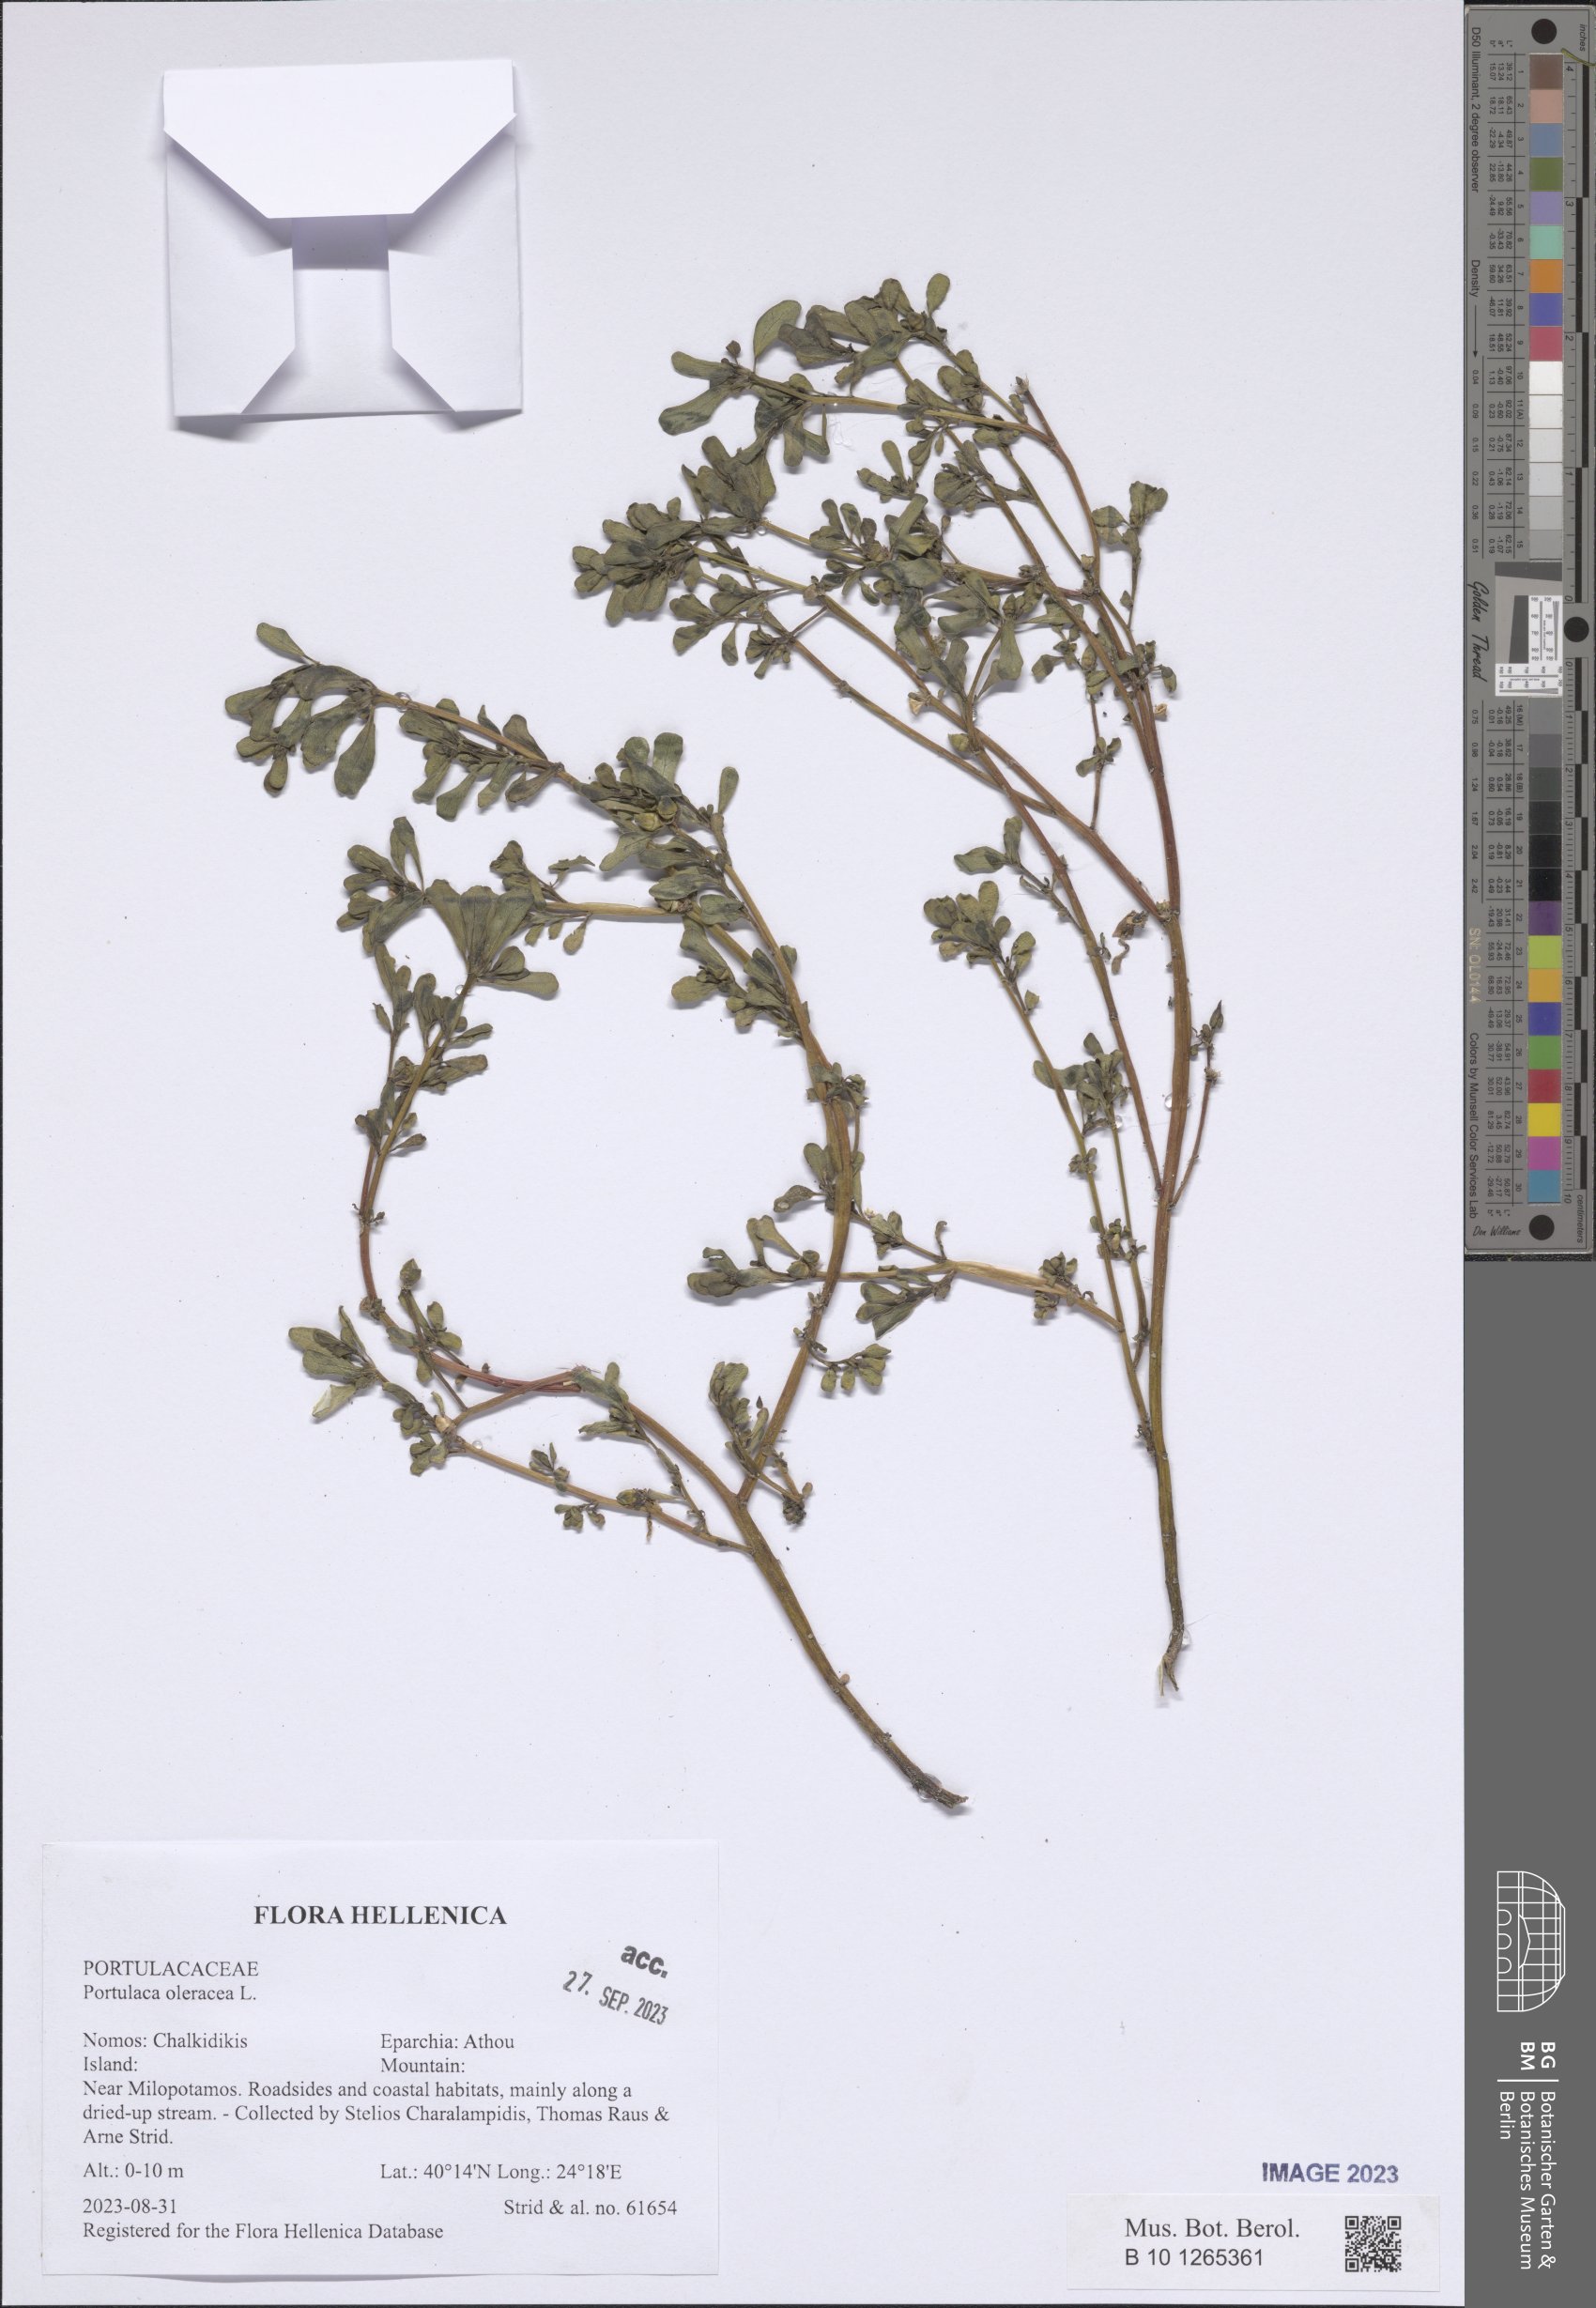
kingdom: Plantae
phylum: Tracheophyta
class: Magnoliopsida
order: Caryophyllales
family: Portulacaceae
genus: Portulaca
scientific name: Portulaca oleracea
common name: Common purslane
